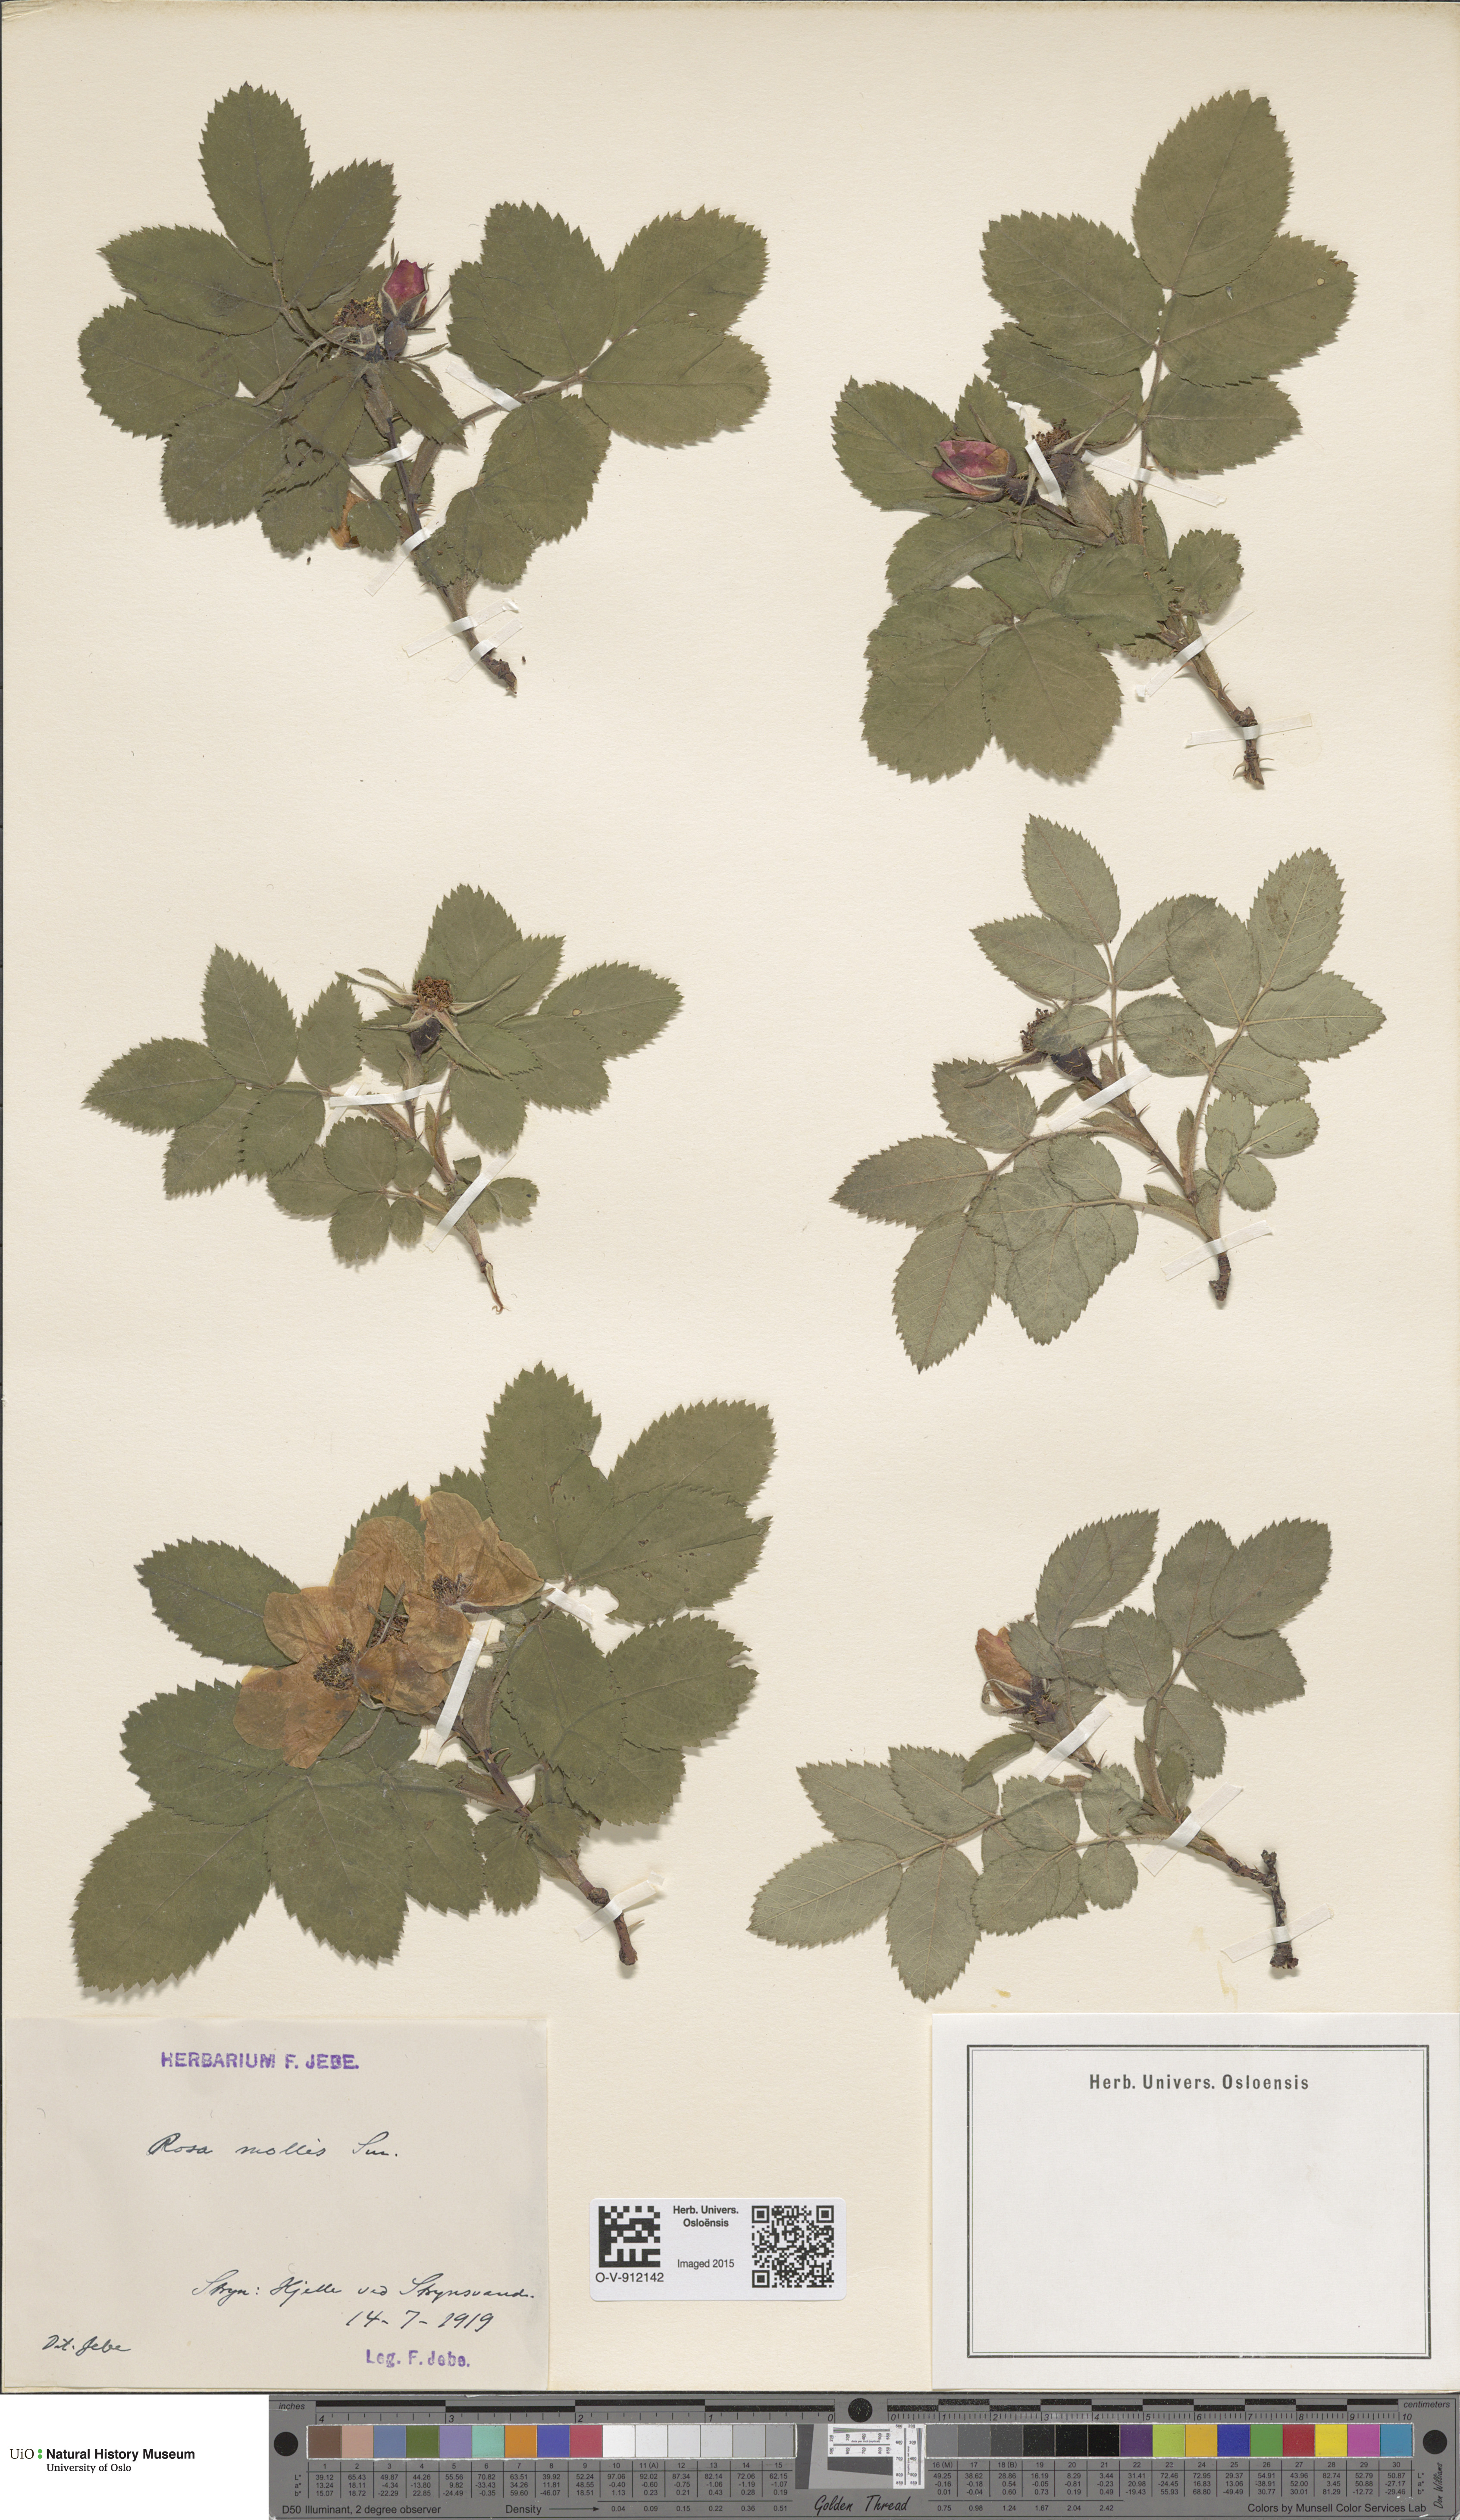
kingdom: Plantae
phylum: Tracheophyta
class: Magnoliopsida
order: Rosales
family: Rosaceae
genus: Rosa
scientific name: Rosa mollis
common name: Rose
